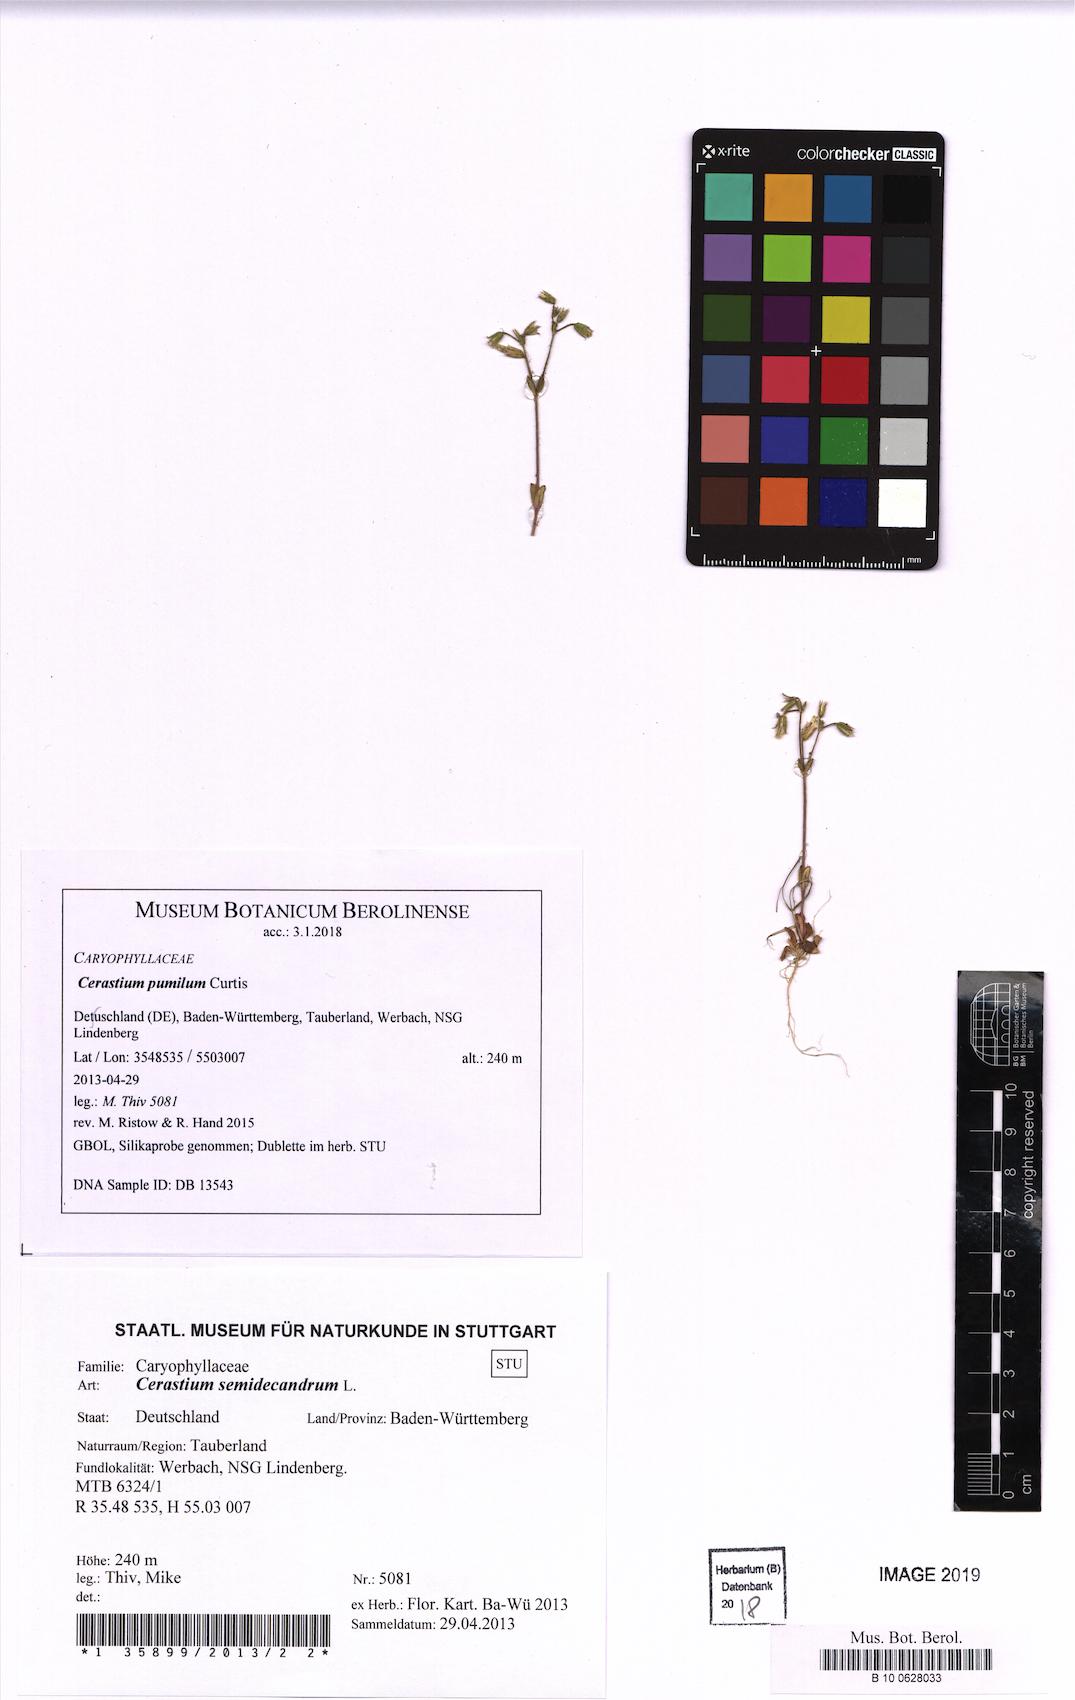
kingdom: Plantae
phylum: Tracheophyta
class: Magnoliopsida
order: Caryophyllales
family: Caryophyllaceae
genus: Cerastium
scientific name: Cerastium pumilum
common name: Dwarf mouse-ear
